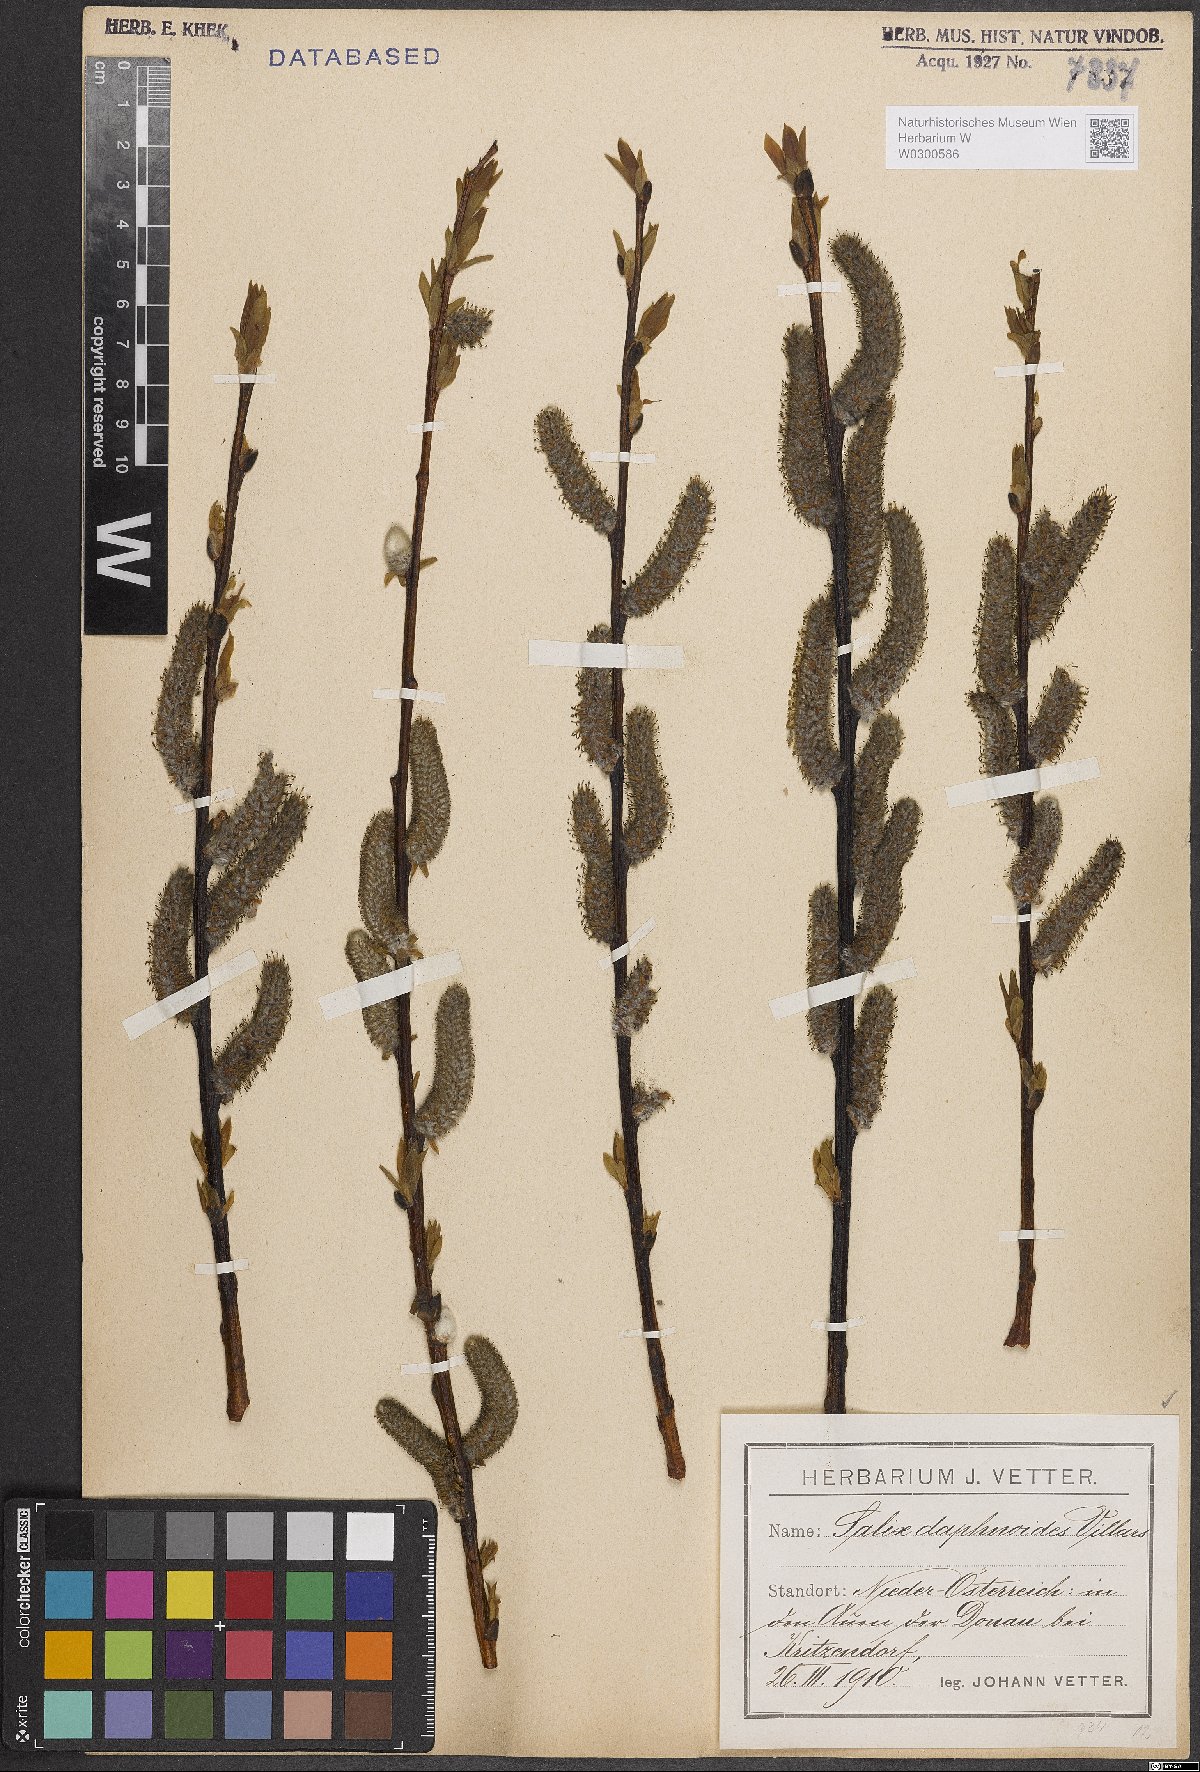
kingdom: Plantae
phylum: Tracheophyta
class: Magnoliopsida
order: Malpighiales
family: Salicaceae
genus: Salix
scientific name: Salix daphnoides
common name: European violet-willow
